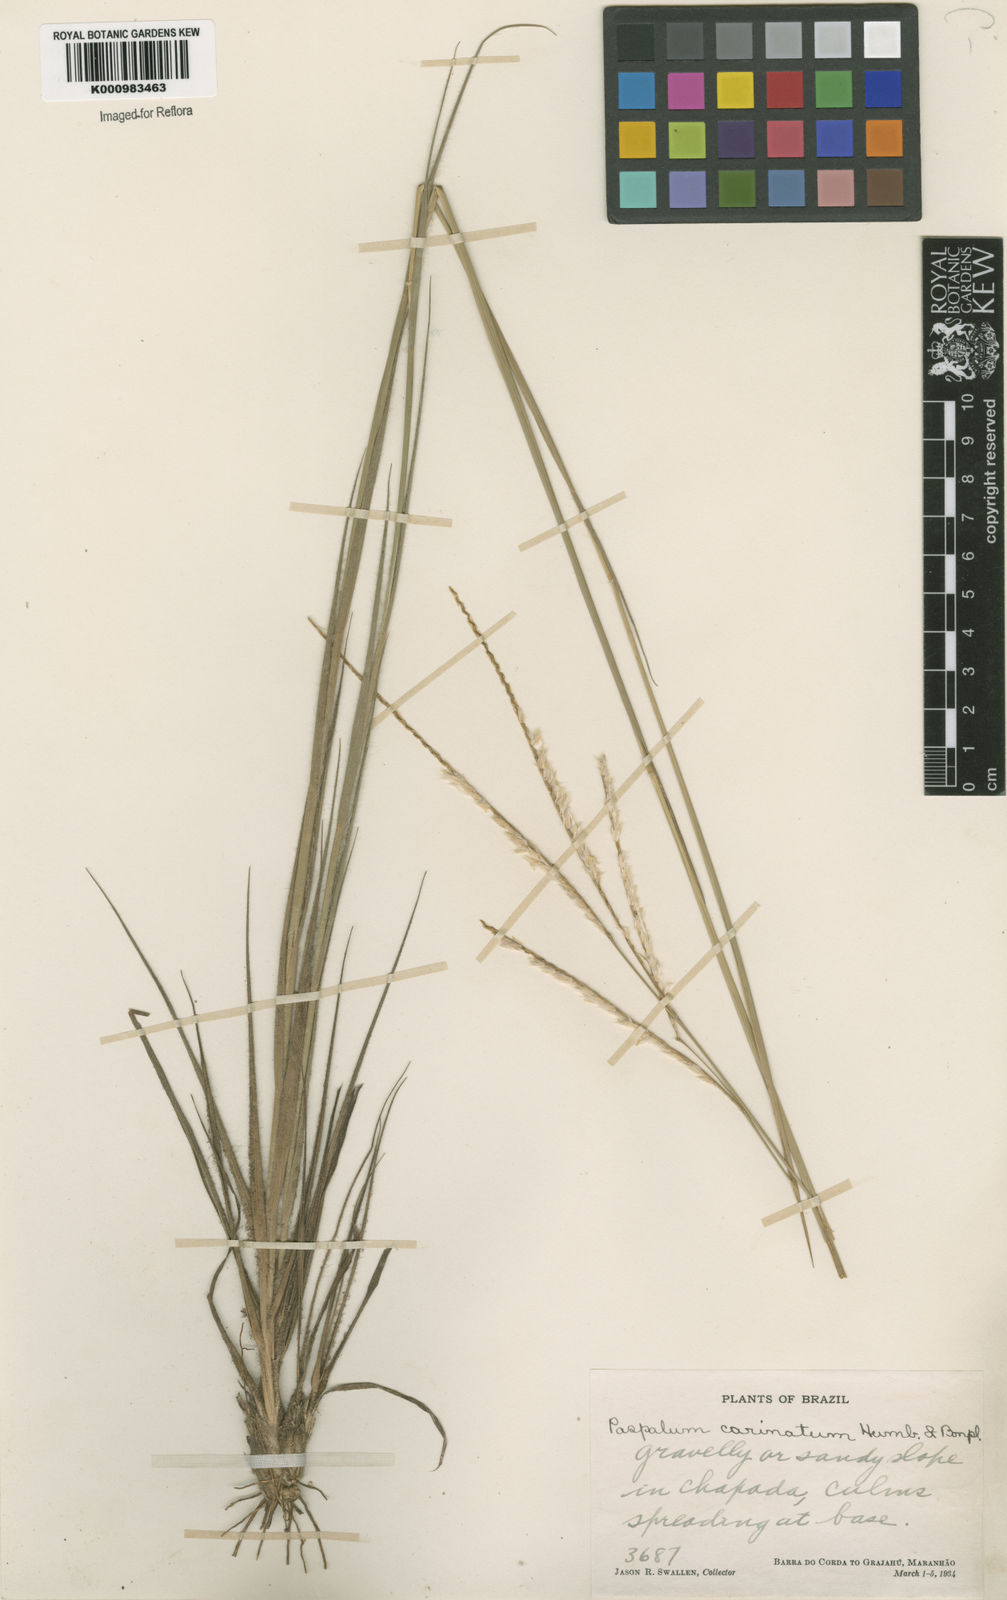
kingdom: Plantae
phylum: Tracheophyta
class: Liliopsida
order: Poales
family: Poaceae
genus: Paspalum
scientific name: Paspalum carinatum
